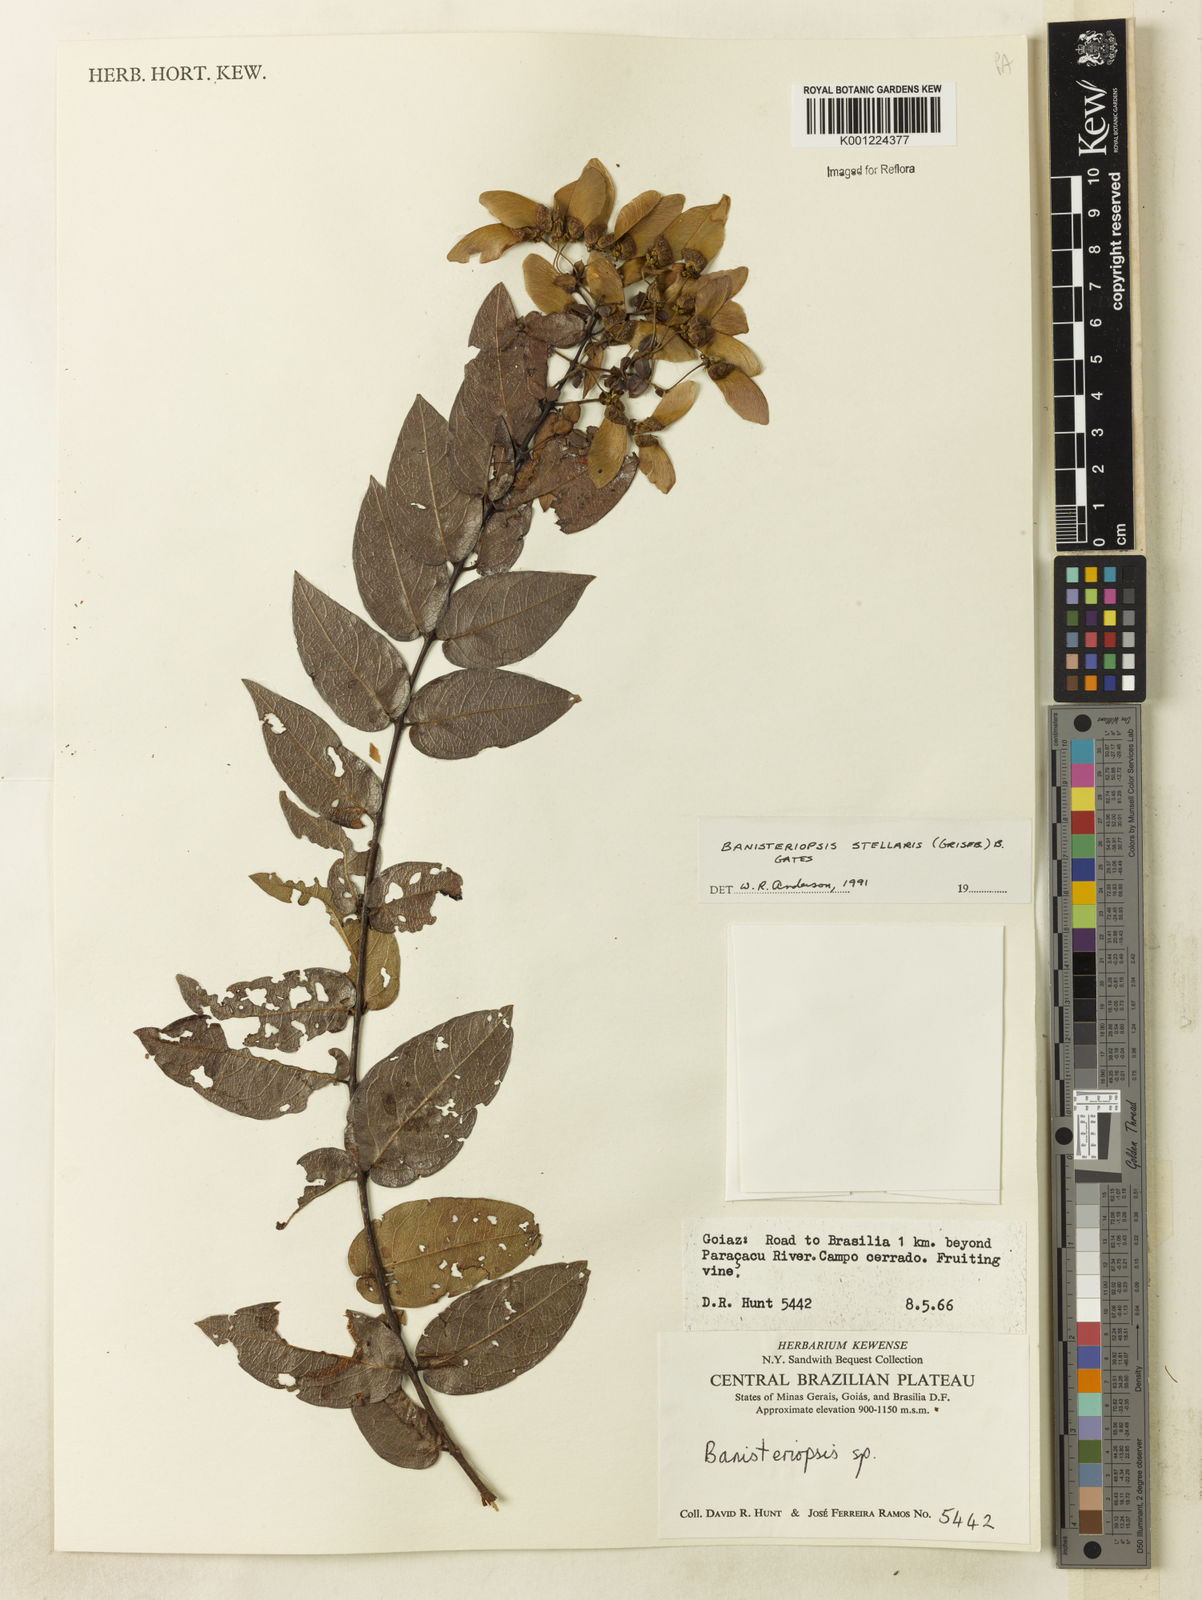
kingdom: Plantae
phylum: Tracheophyta
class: Magnoliopsida
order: Malpighiales
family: Malpighiaceae
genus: Banisteriopsis
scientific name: Banisteriopsis stellaris
